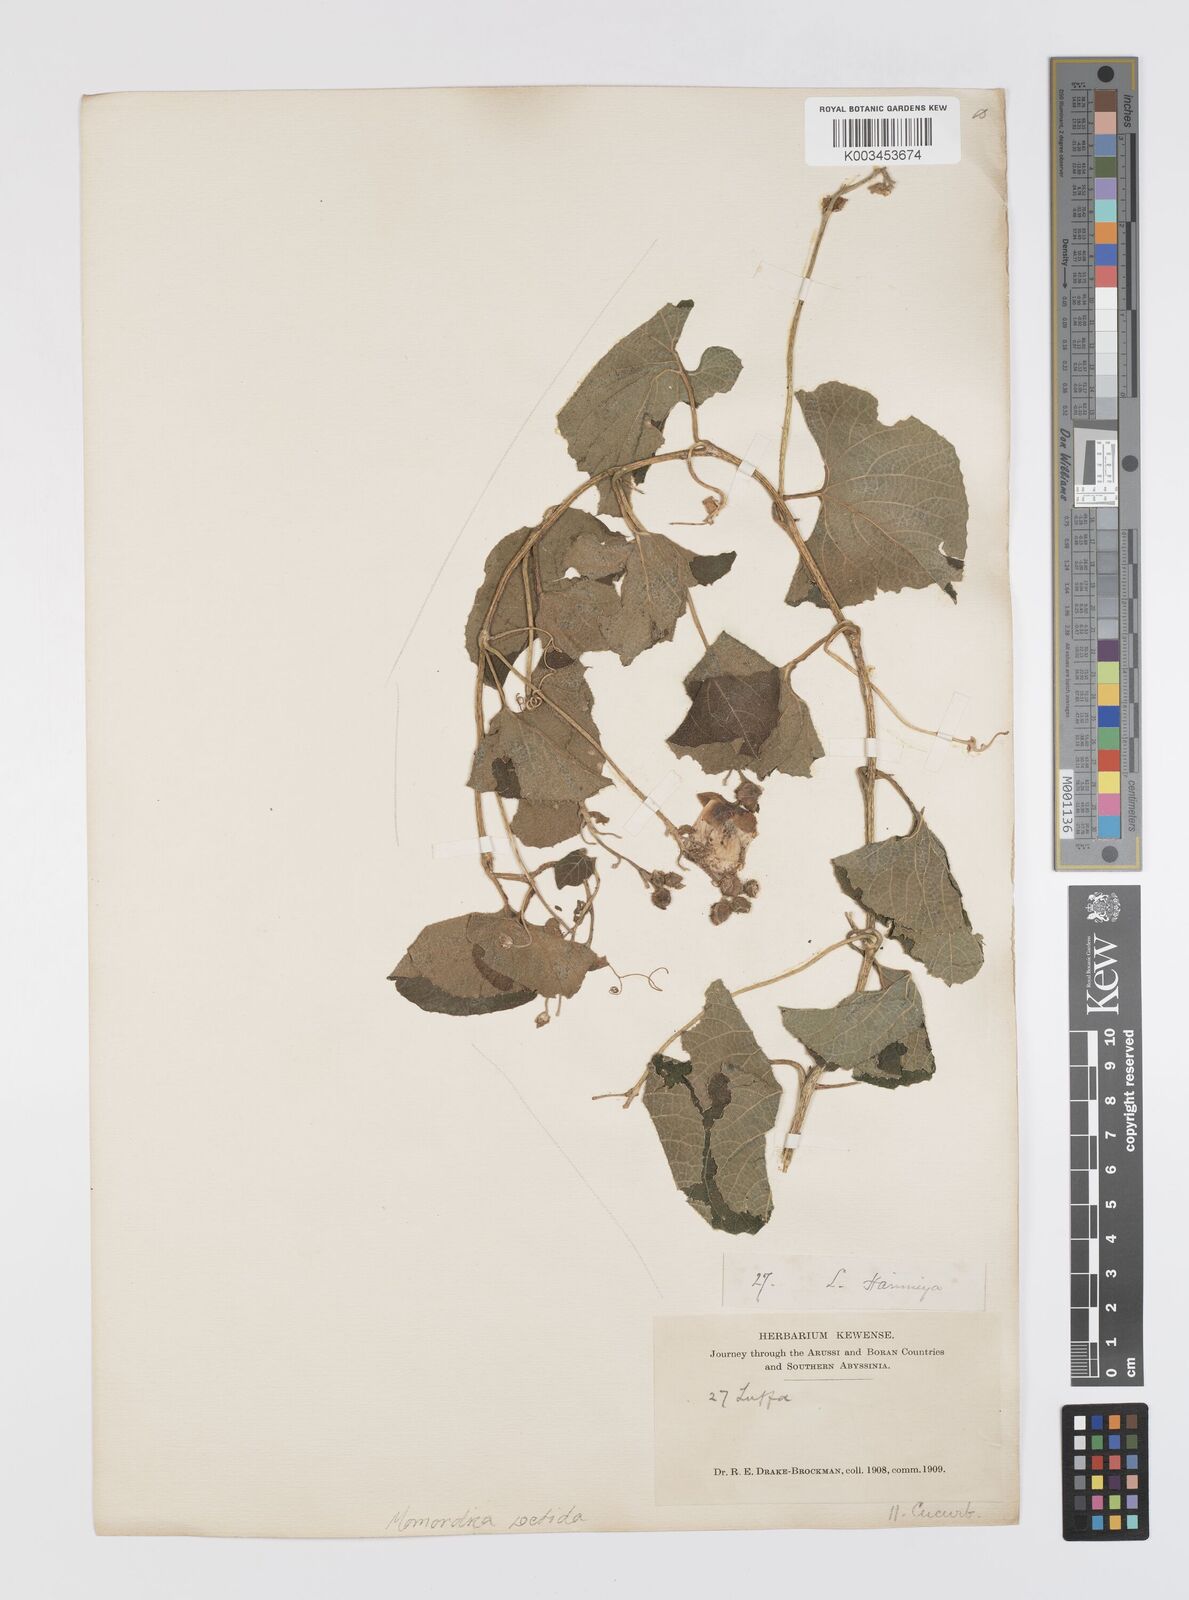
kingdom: Plantae
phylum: Tracheophyta
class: Magnoliopsida
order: Cucurbitales
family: Cucurbitaceae
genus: Momordica
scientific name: Momordica foetida
